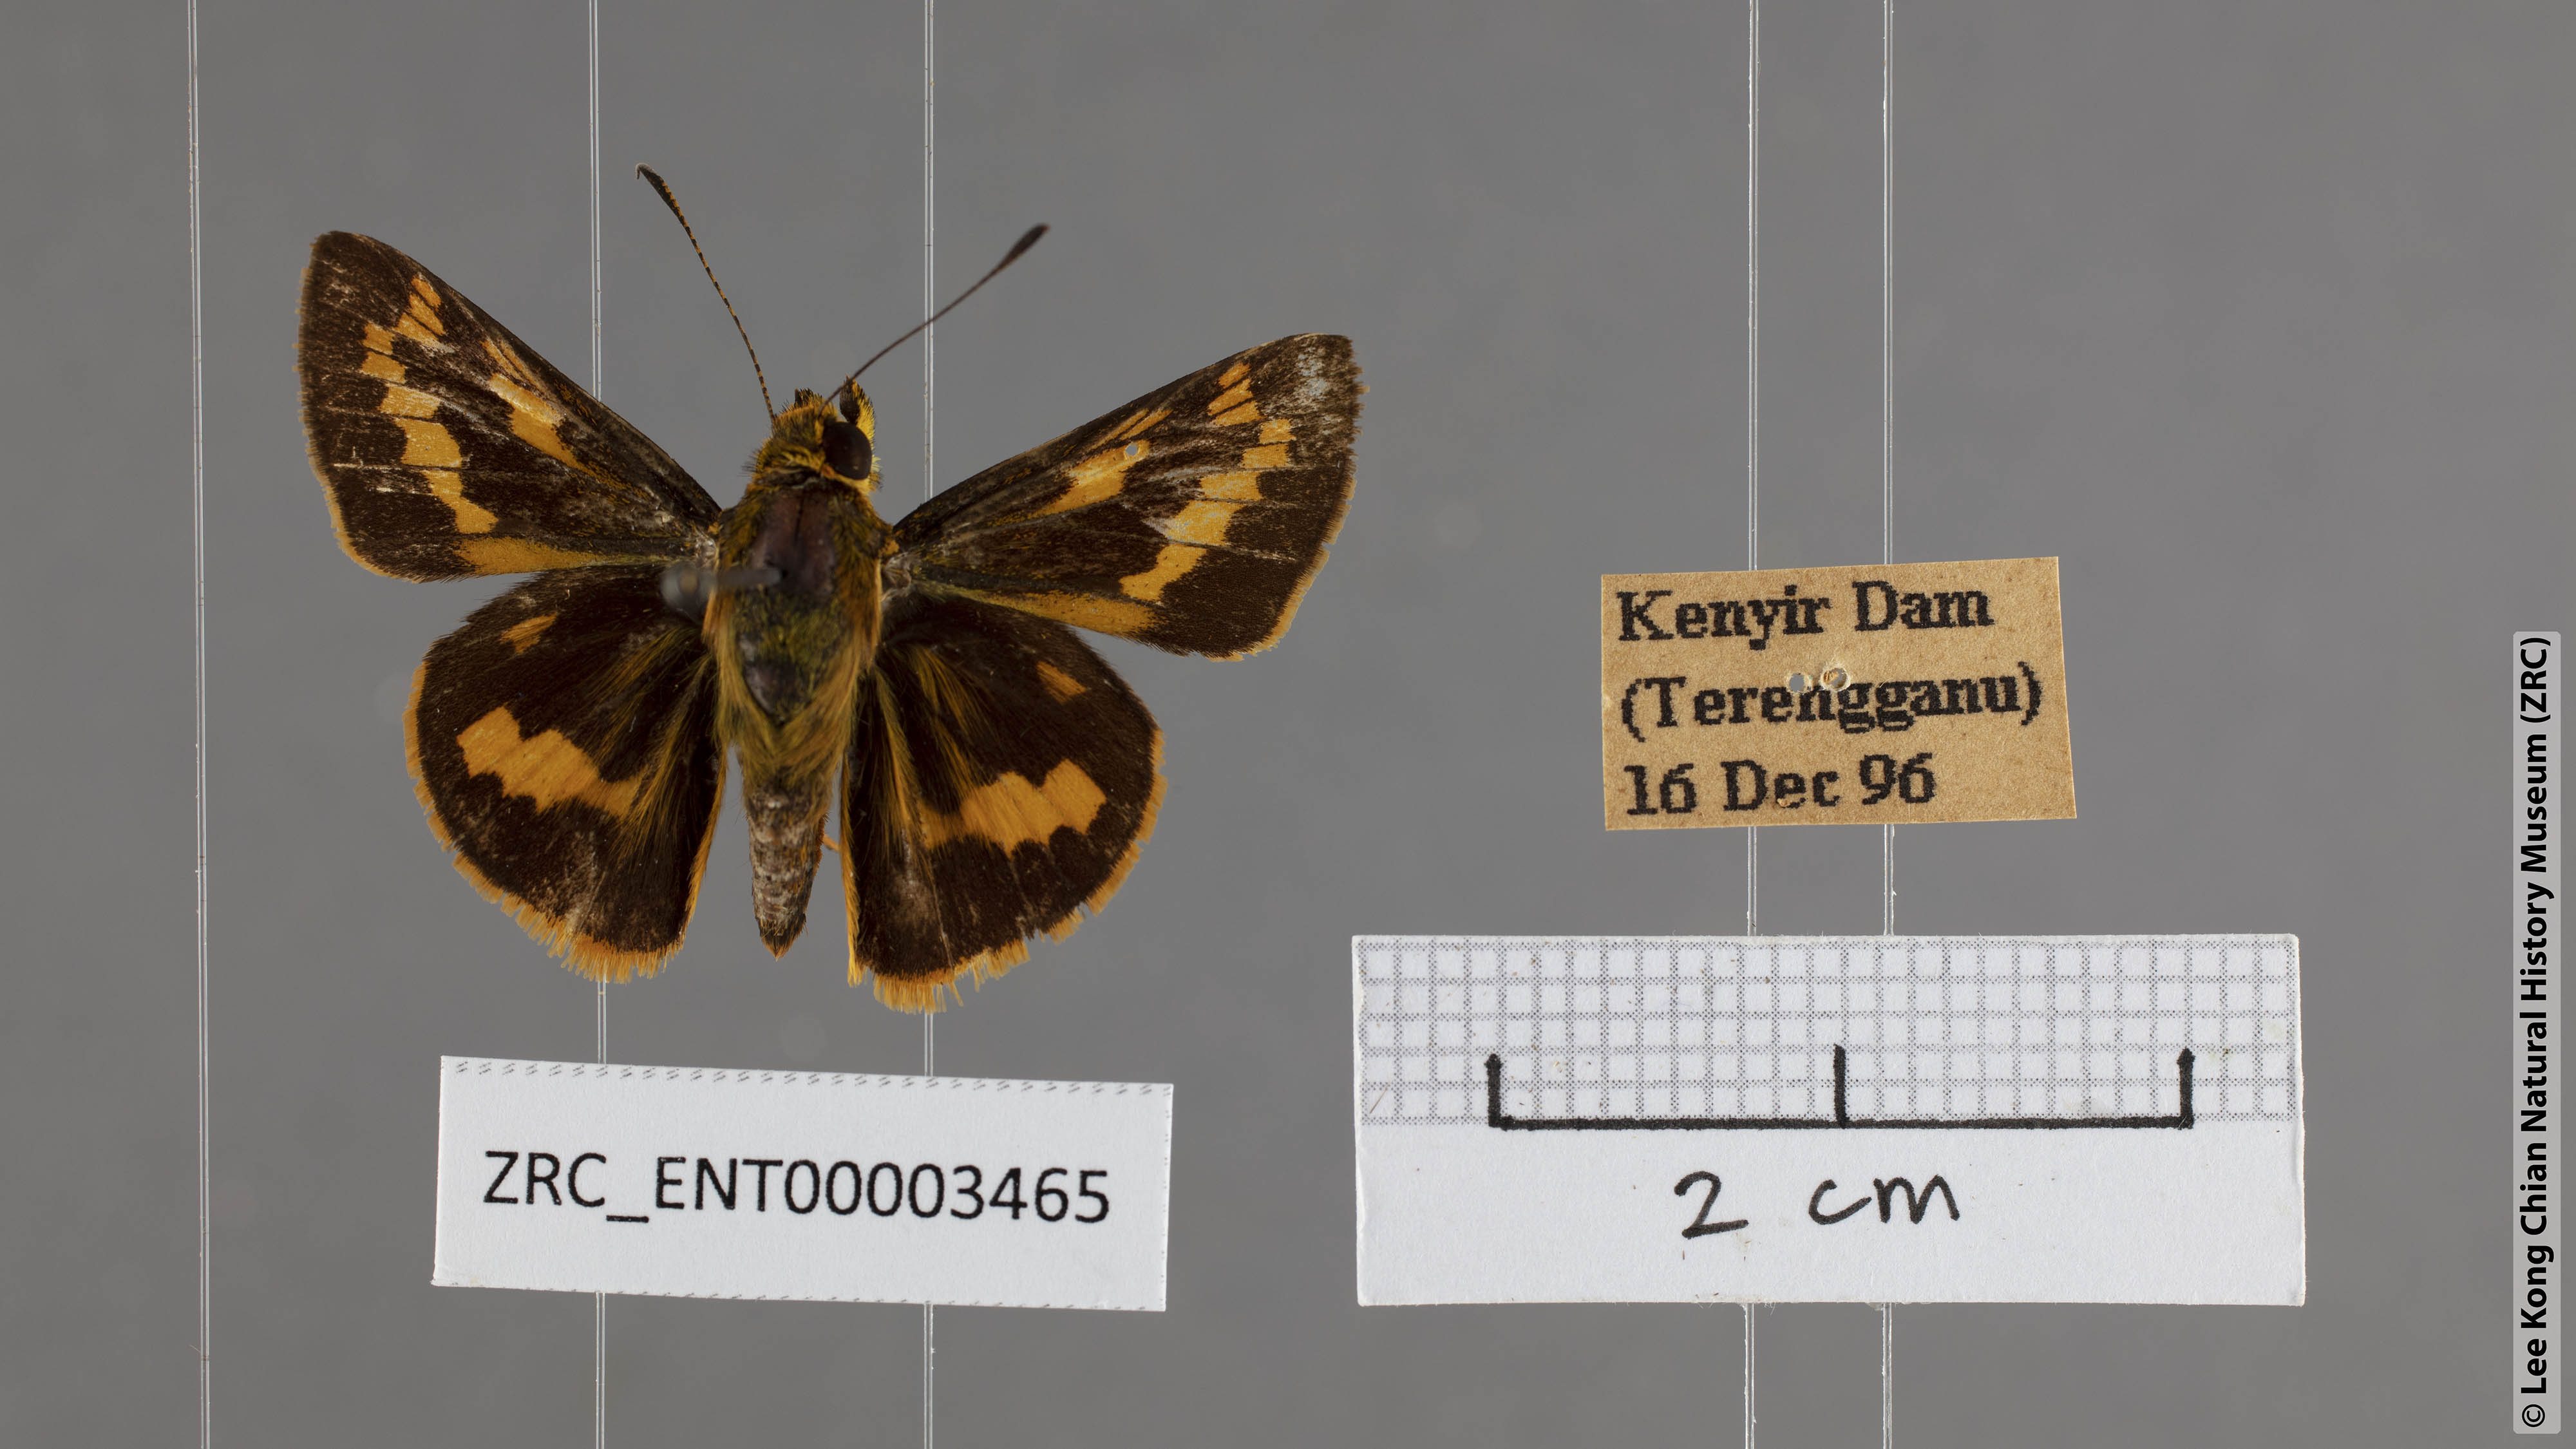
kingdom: Animalia
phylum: Arthropoda
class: Insecta
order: Lepidoptera
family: Hesperiidae
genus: Potanthus
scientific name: Potanthus
